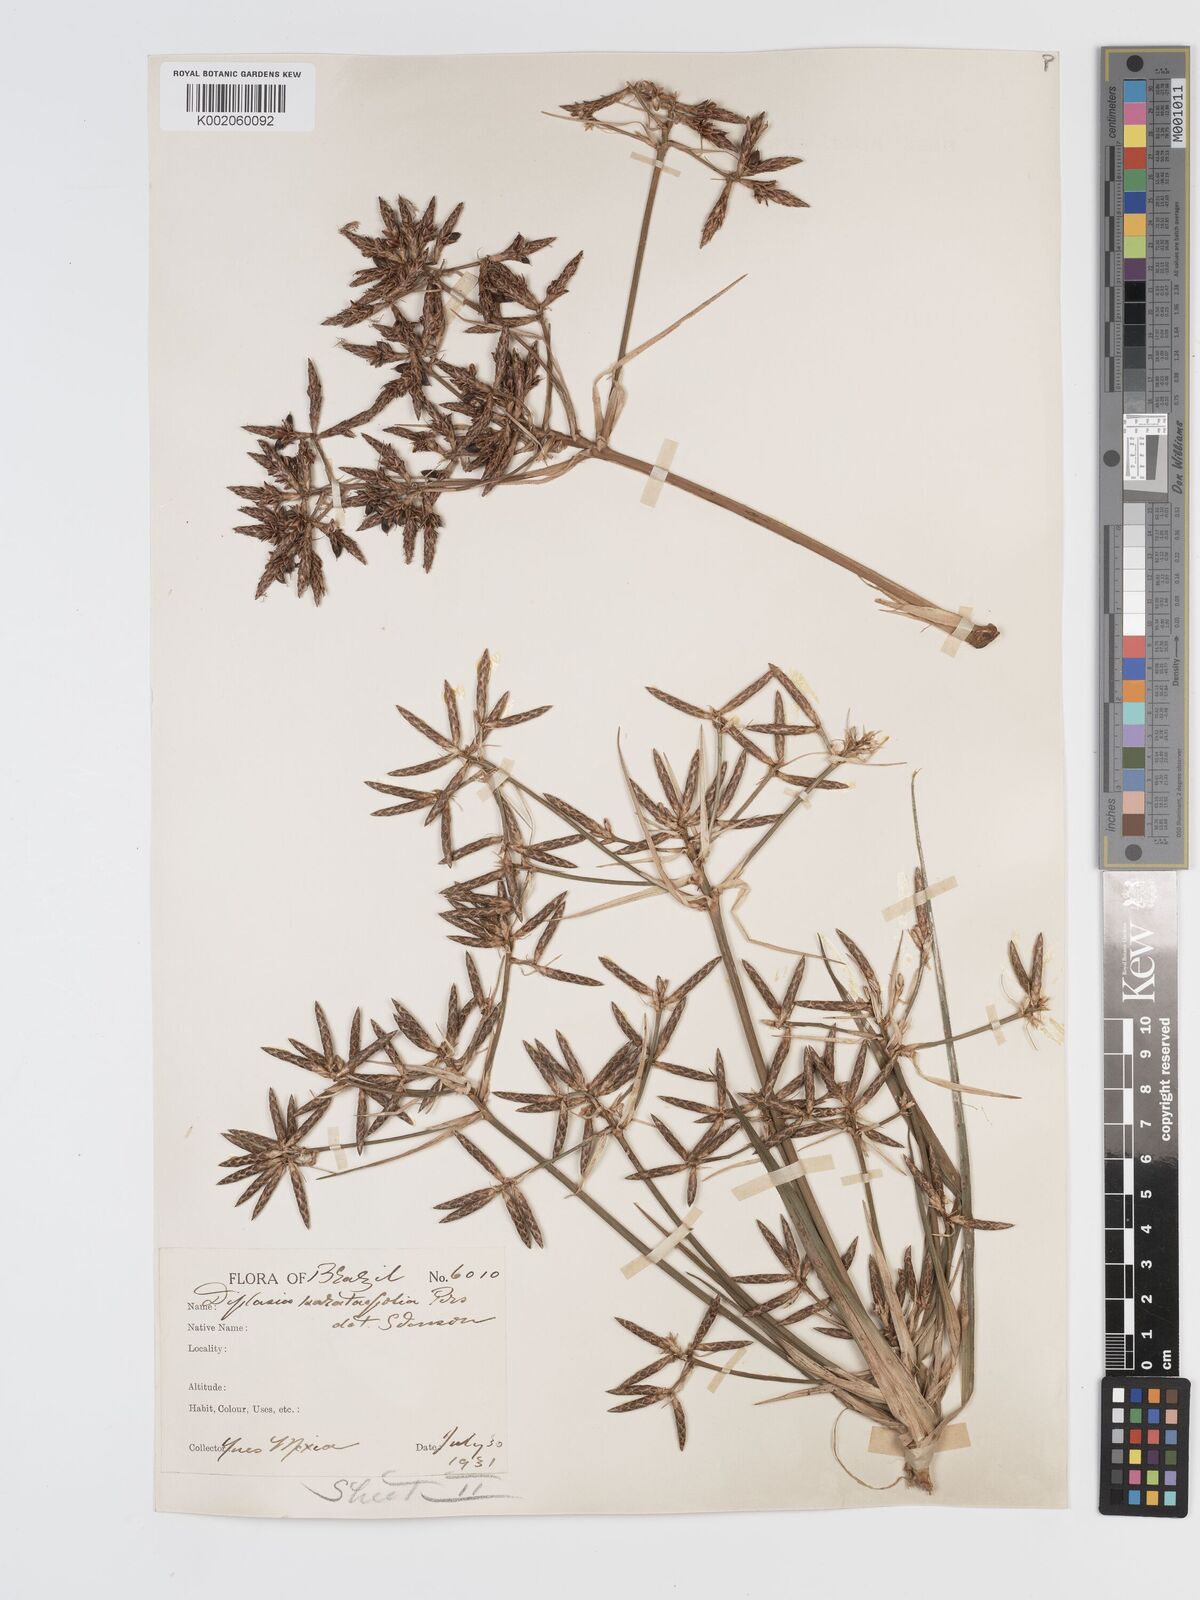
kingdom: Plantae
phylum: Tracheophyta
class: Liliopsida
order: Poales
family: Cyperaceae
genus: Diplasia
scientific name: Diplasia karatifolia
